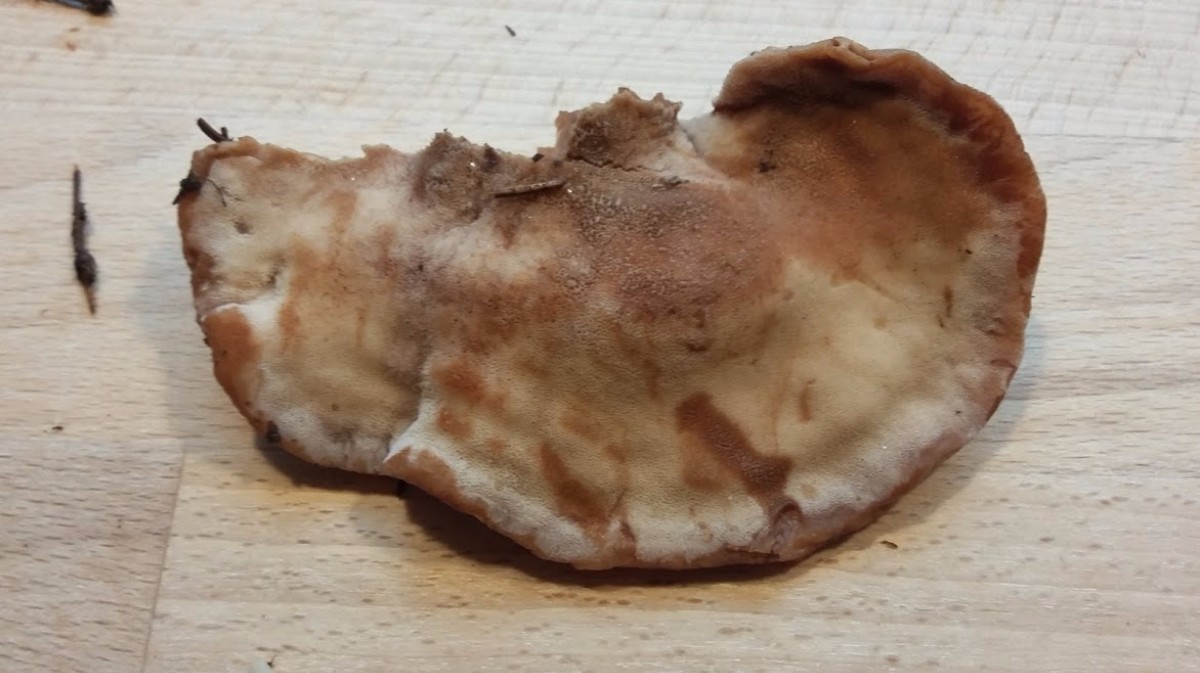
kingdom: Fungi
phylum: Basidiomycota
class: Agaricomycetes
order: Polyporales
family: Ischnodermataceae
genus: Ischnoderma
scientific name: Ischnoderma benzoinum
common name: gran-tjæreporesvamp
